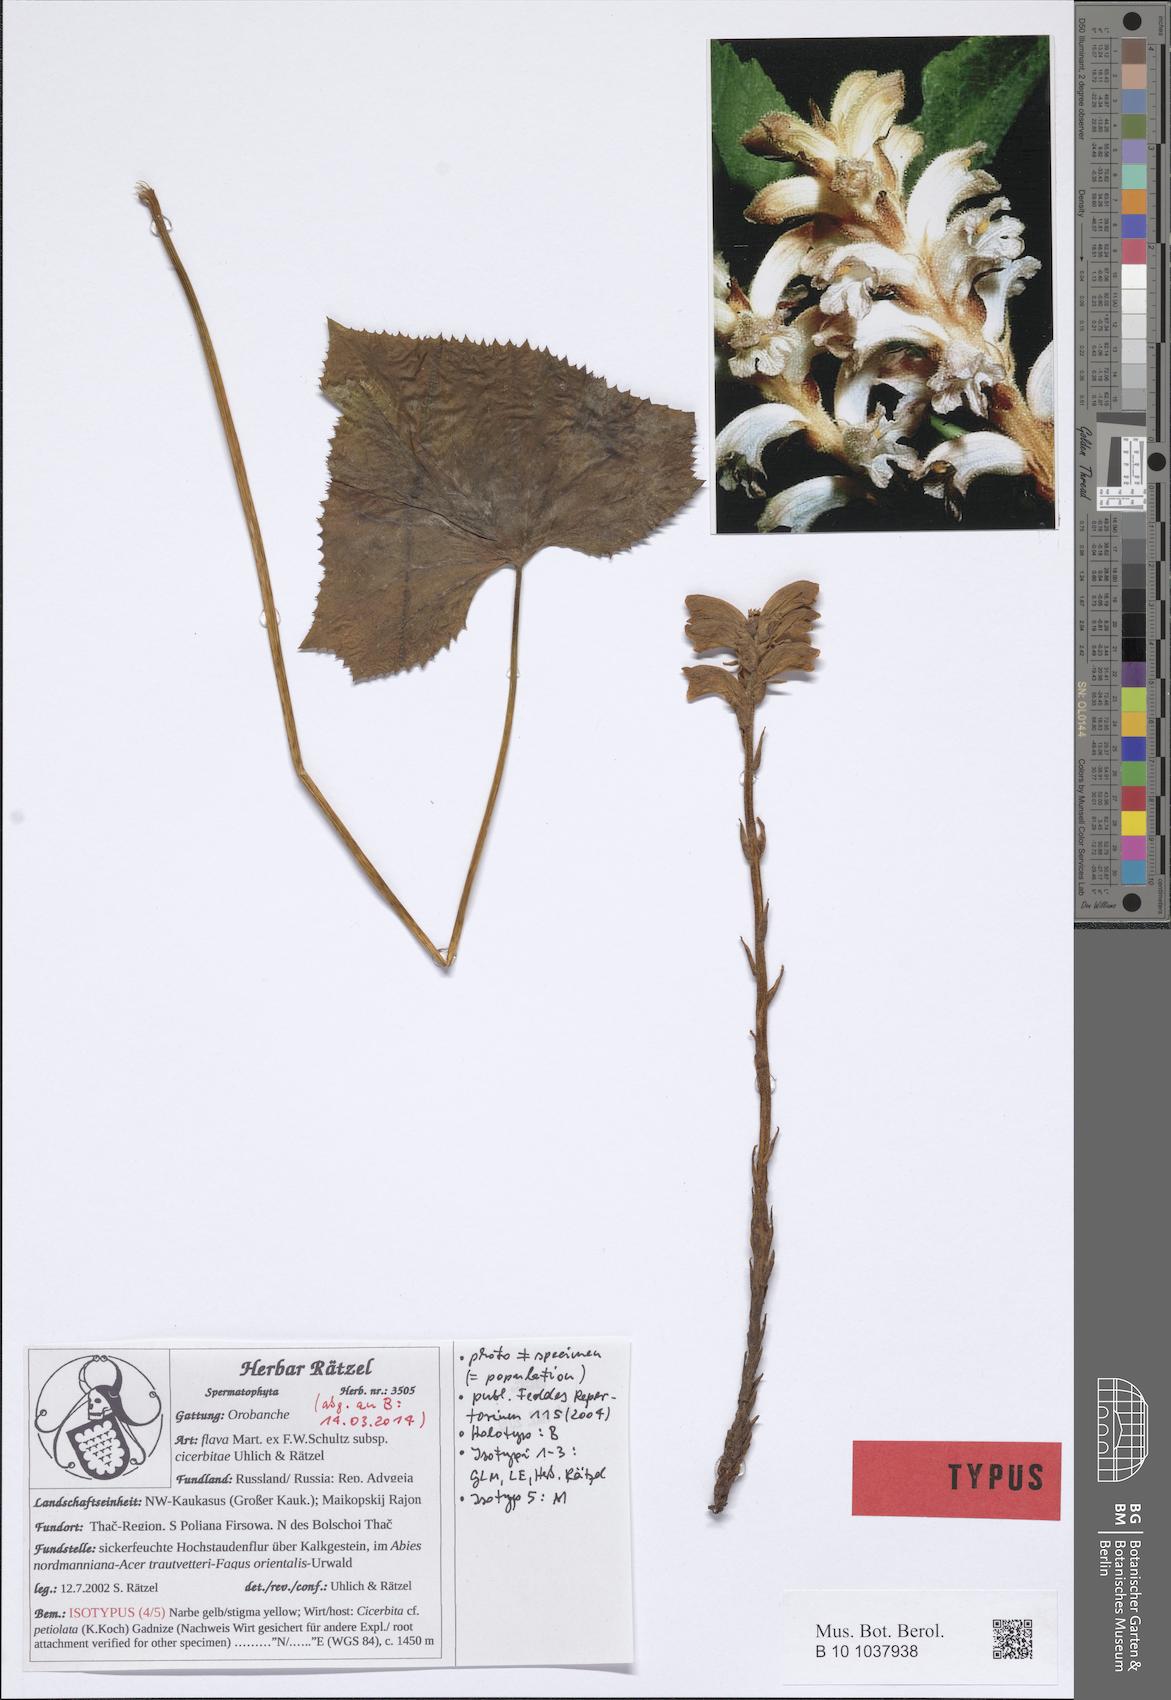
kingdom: Plantae
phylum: Tracheophyta
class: Magnoliopsida
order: Lamiales
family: Orobanchaceae
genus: Orobanche
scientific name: Orobanche flava
